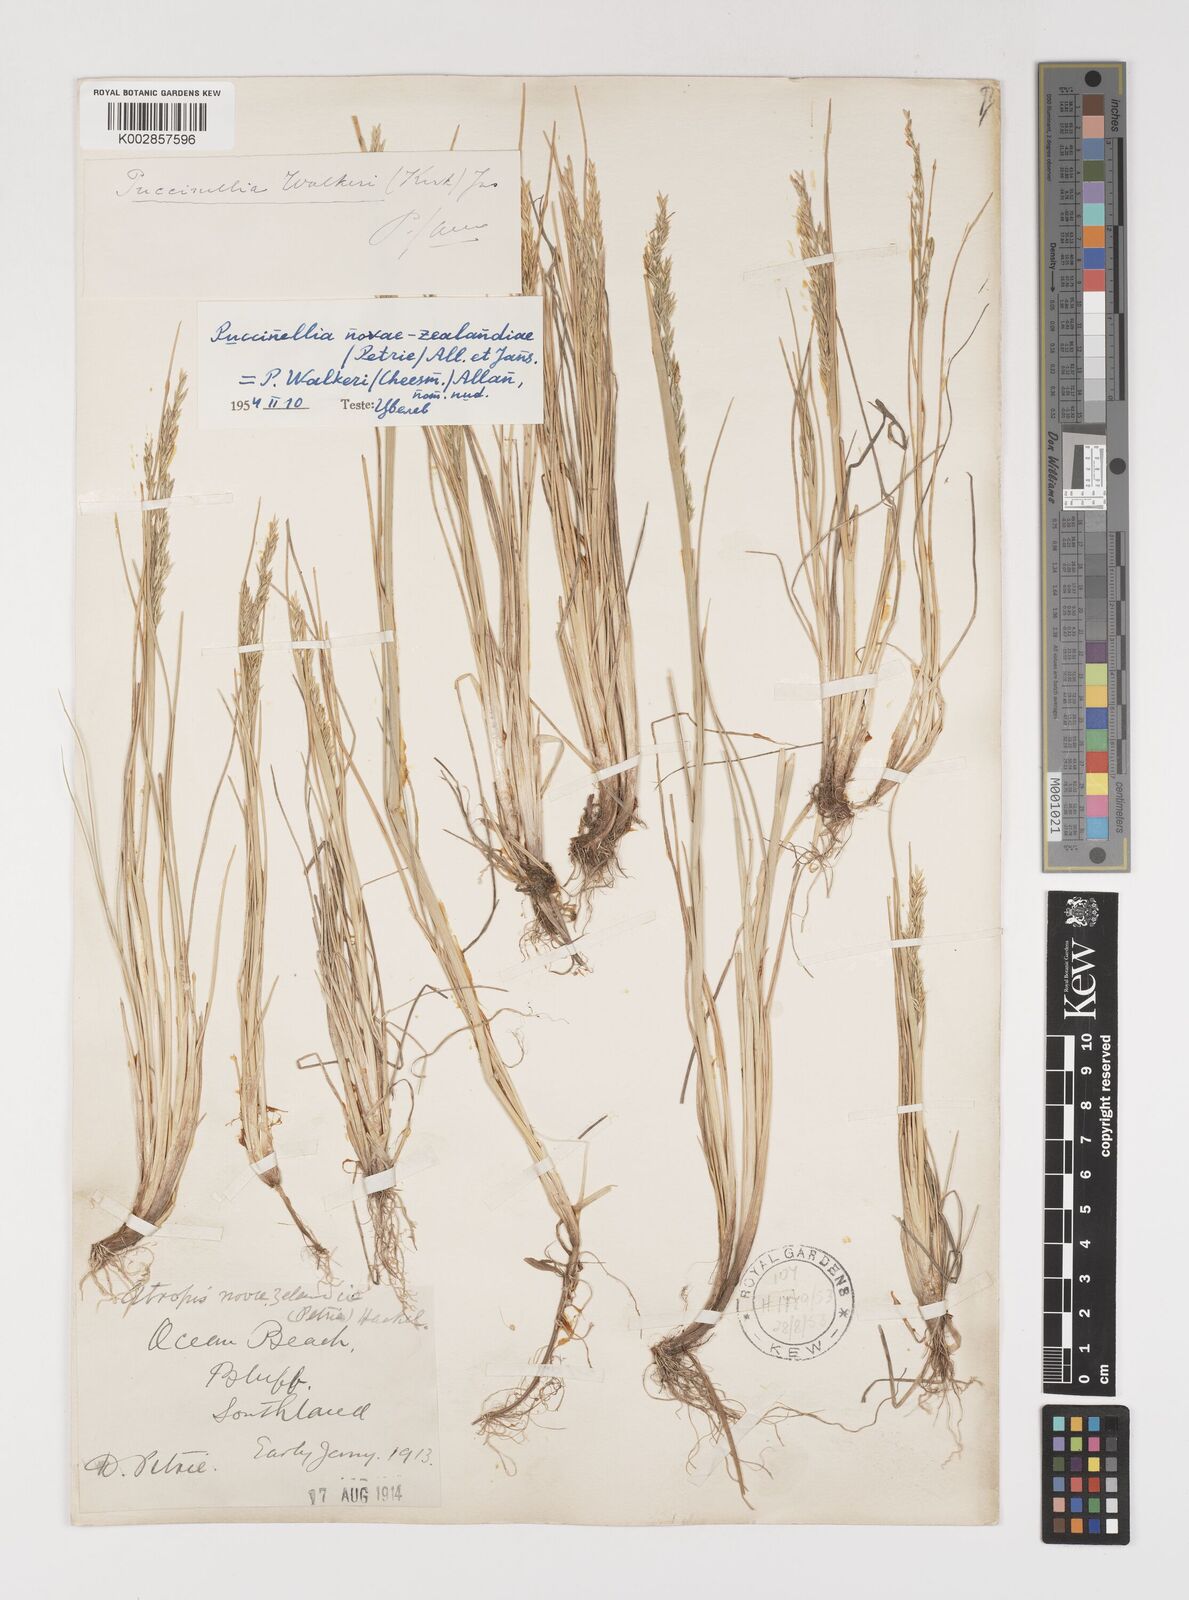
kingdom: Plantae
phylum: Tracheophyta
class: Liliopsida
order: Poales
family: Poaceae
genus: Puccinellia
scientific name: Puccinellia walkeri
